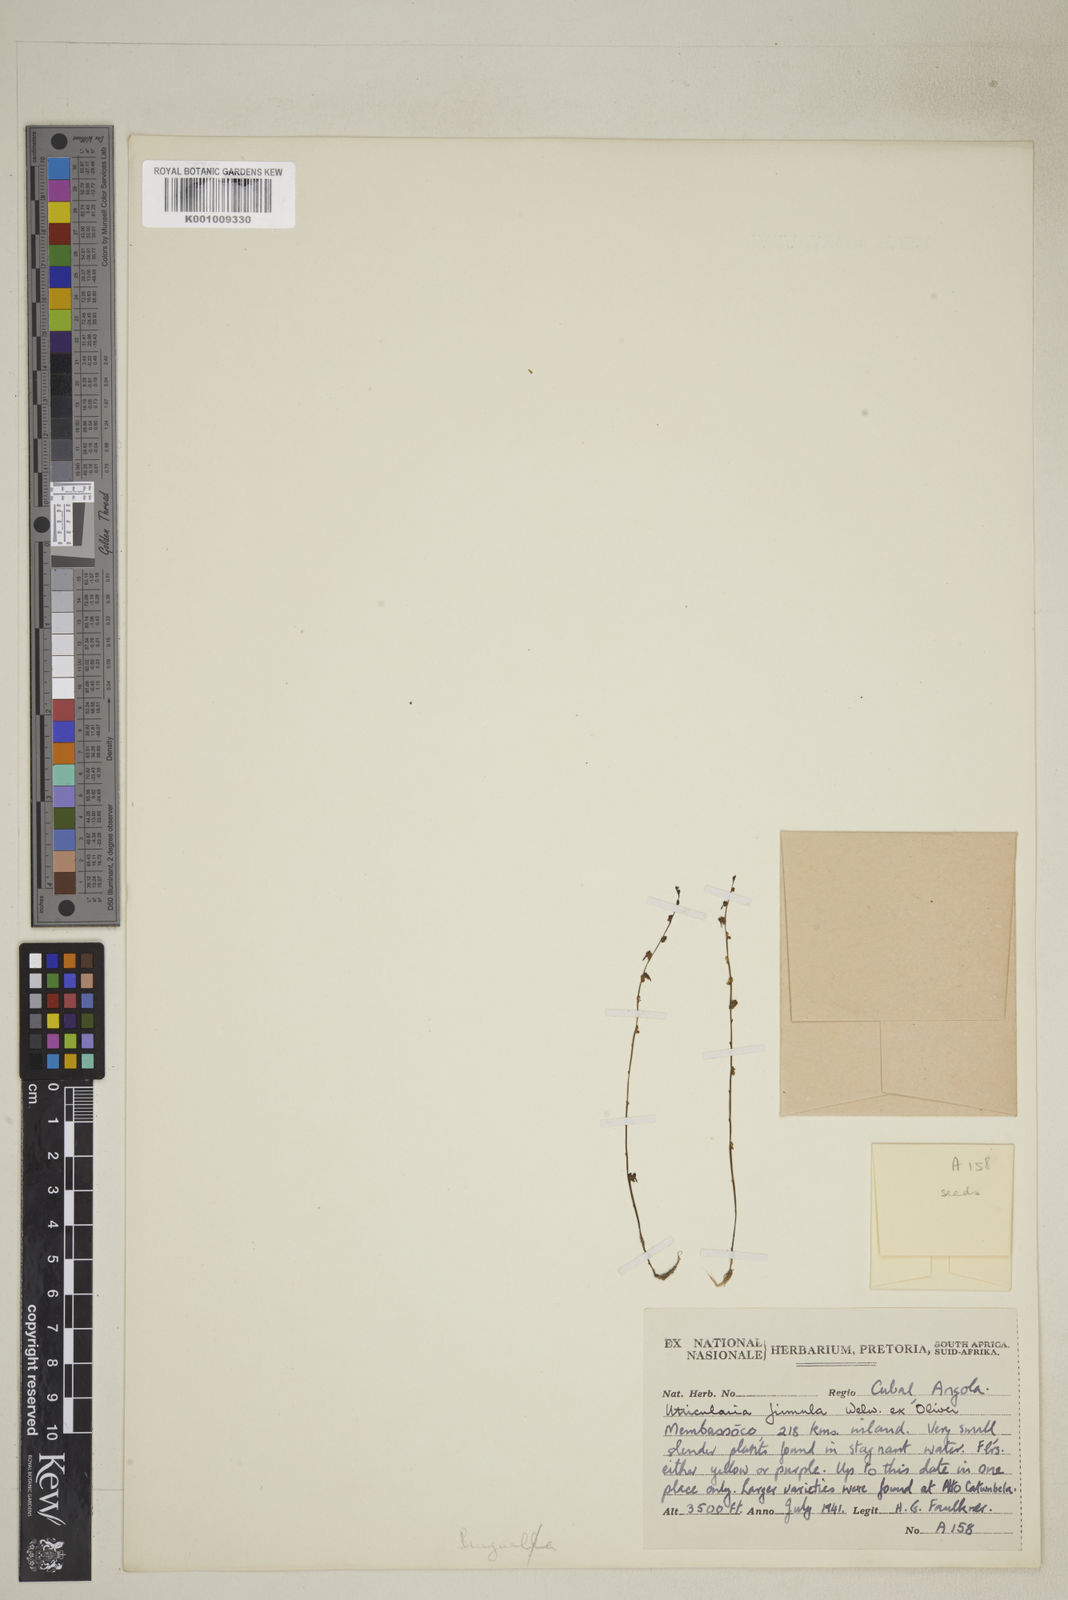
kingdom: Plantae
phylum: Tracheophyta
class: Magnoliopsida
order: Lamiales
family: Lentibulariaceae
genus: Utricularia
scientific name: Utricularia firmula
